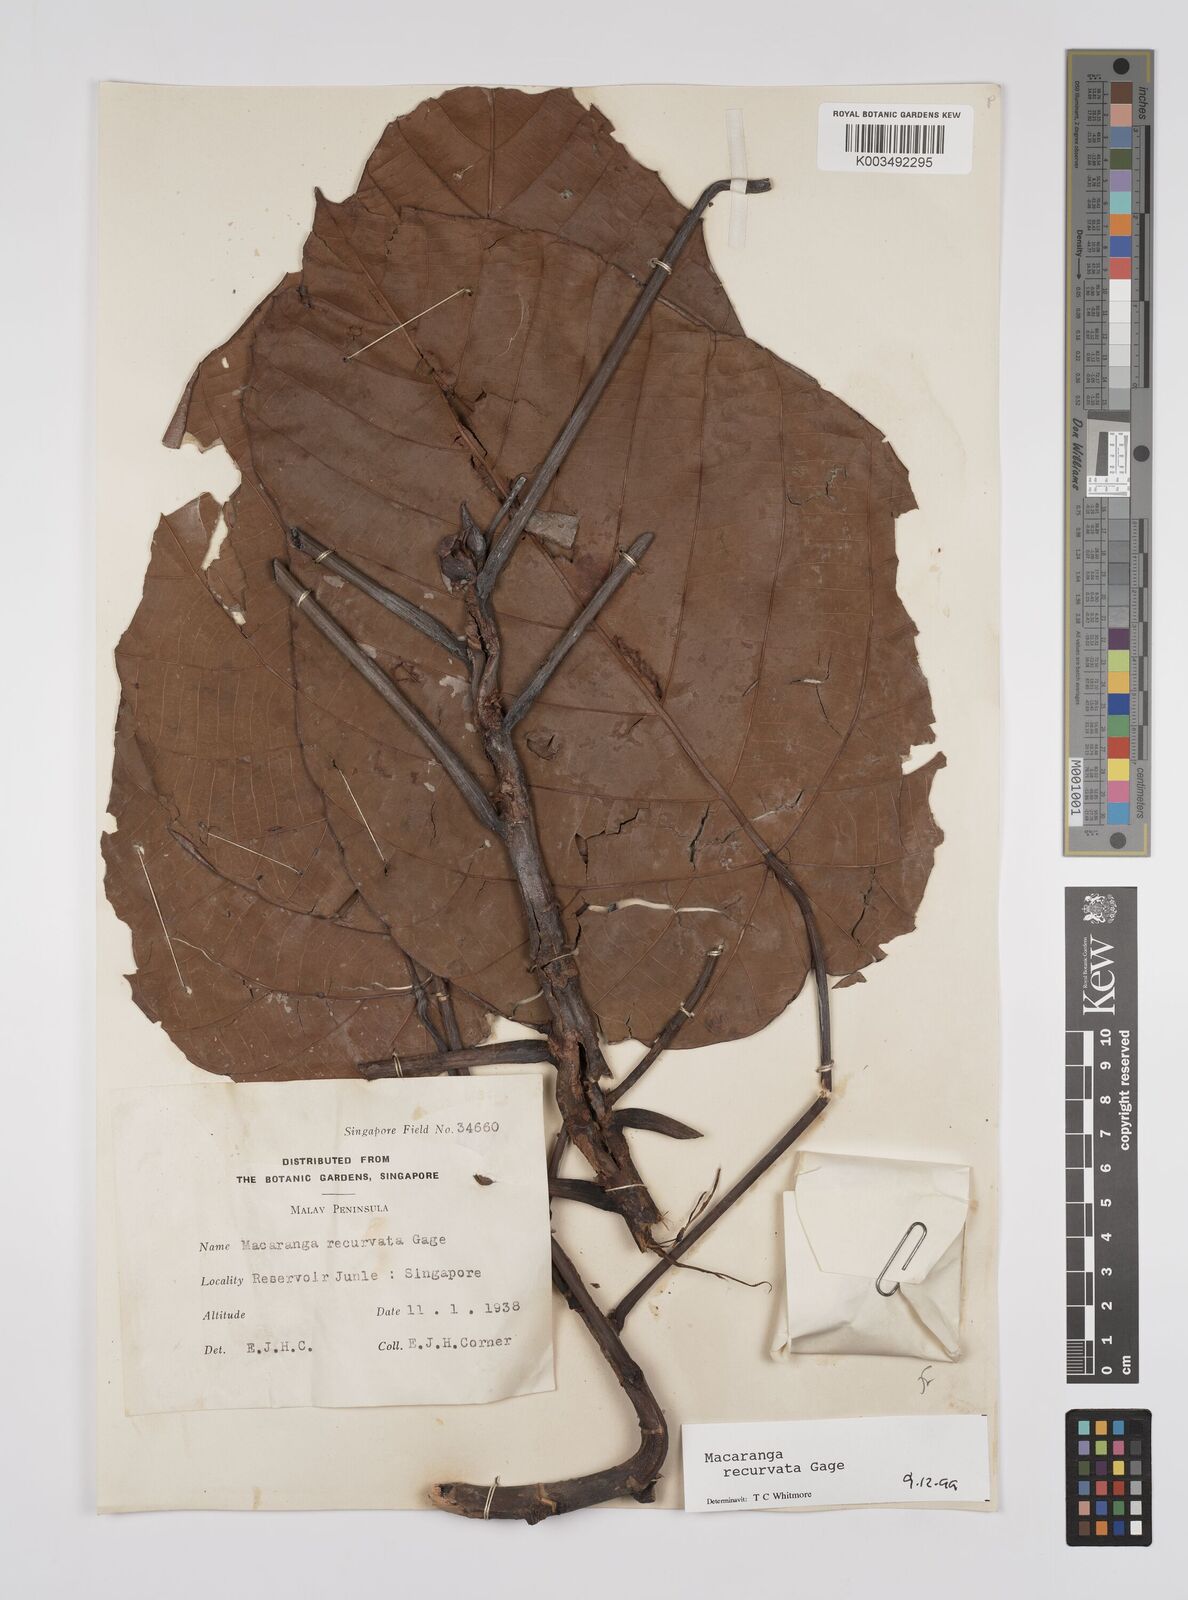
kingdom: Plantae
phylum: Tracheophyta
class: Magnoliopsida
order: Malpighiales
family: Euphorbiaceae
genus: Macaranga
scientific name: Macaranga recurvata
